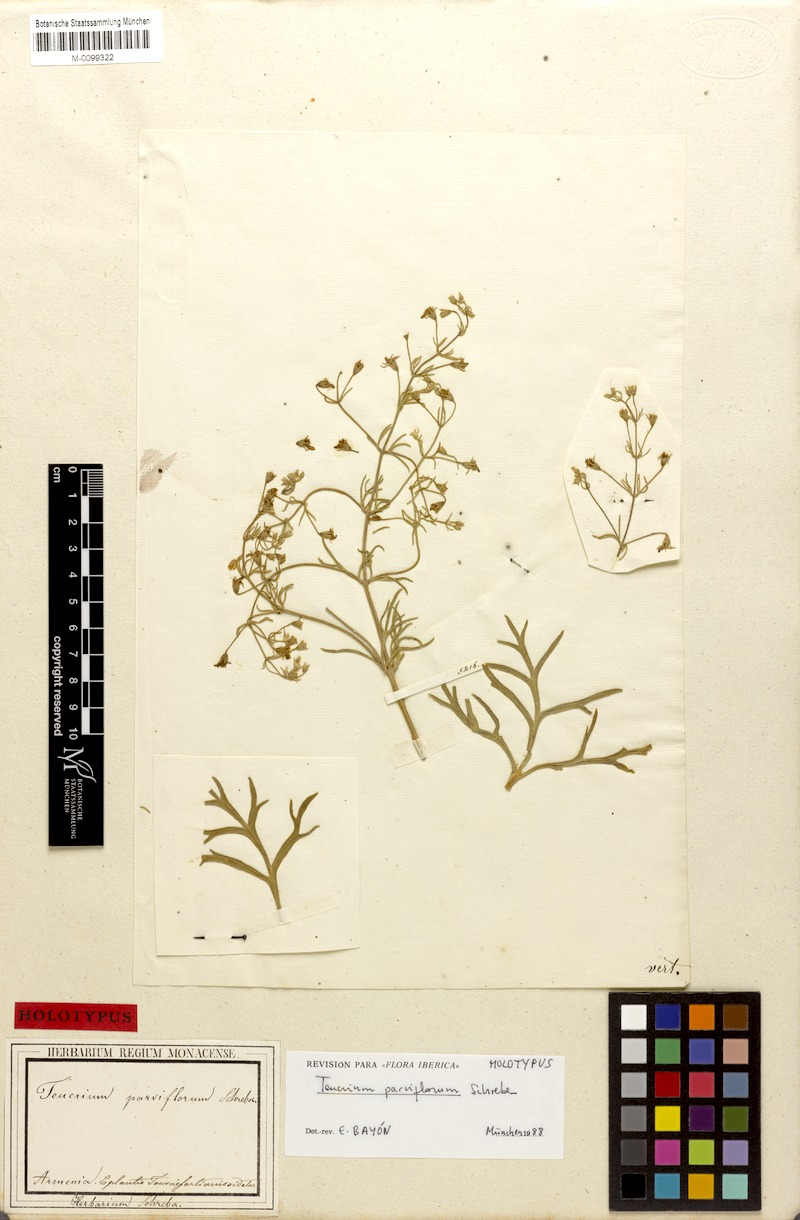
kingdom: Plantae
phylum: Tracheophyta
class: Magnoliopsida
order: Lamiales
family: Lamiaceae
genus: Teucrium
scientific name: Teucrium parviflorum
